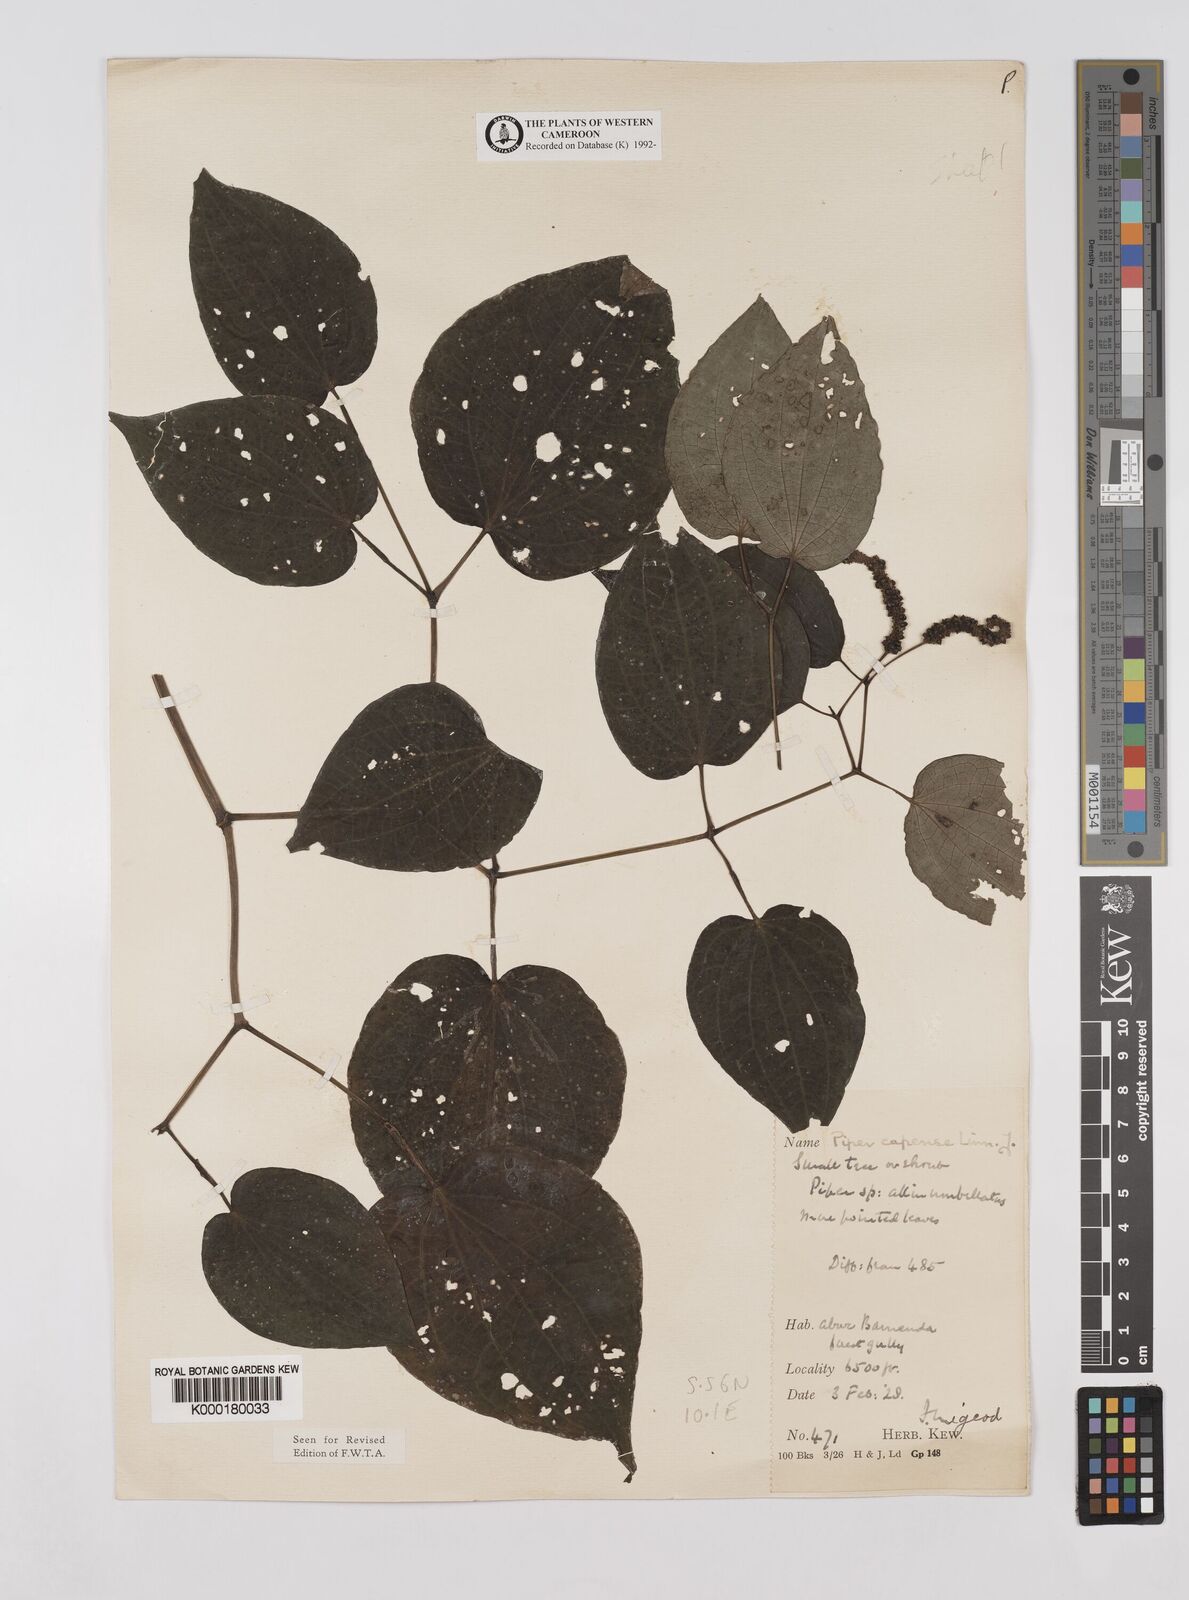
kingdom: Plantae
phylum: Tracheophyta
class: Magnoliopsida
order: Piperales
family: Piperaceae
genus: Piper
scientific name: Piper capense
